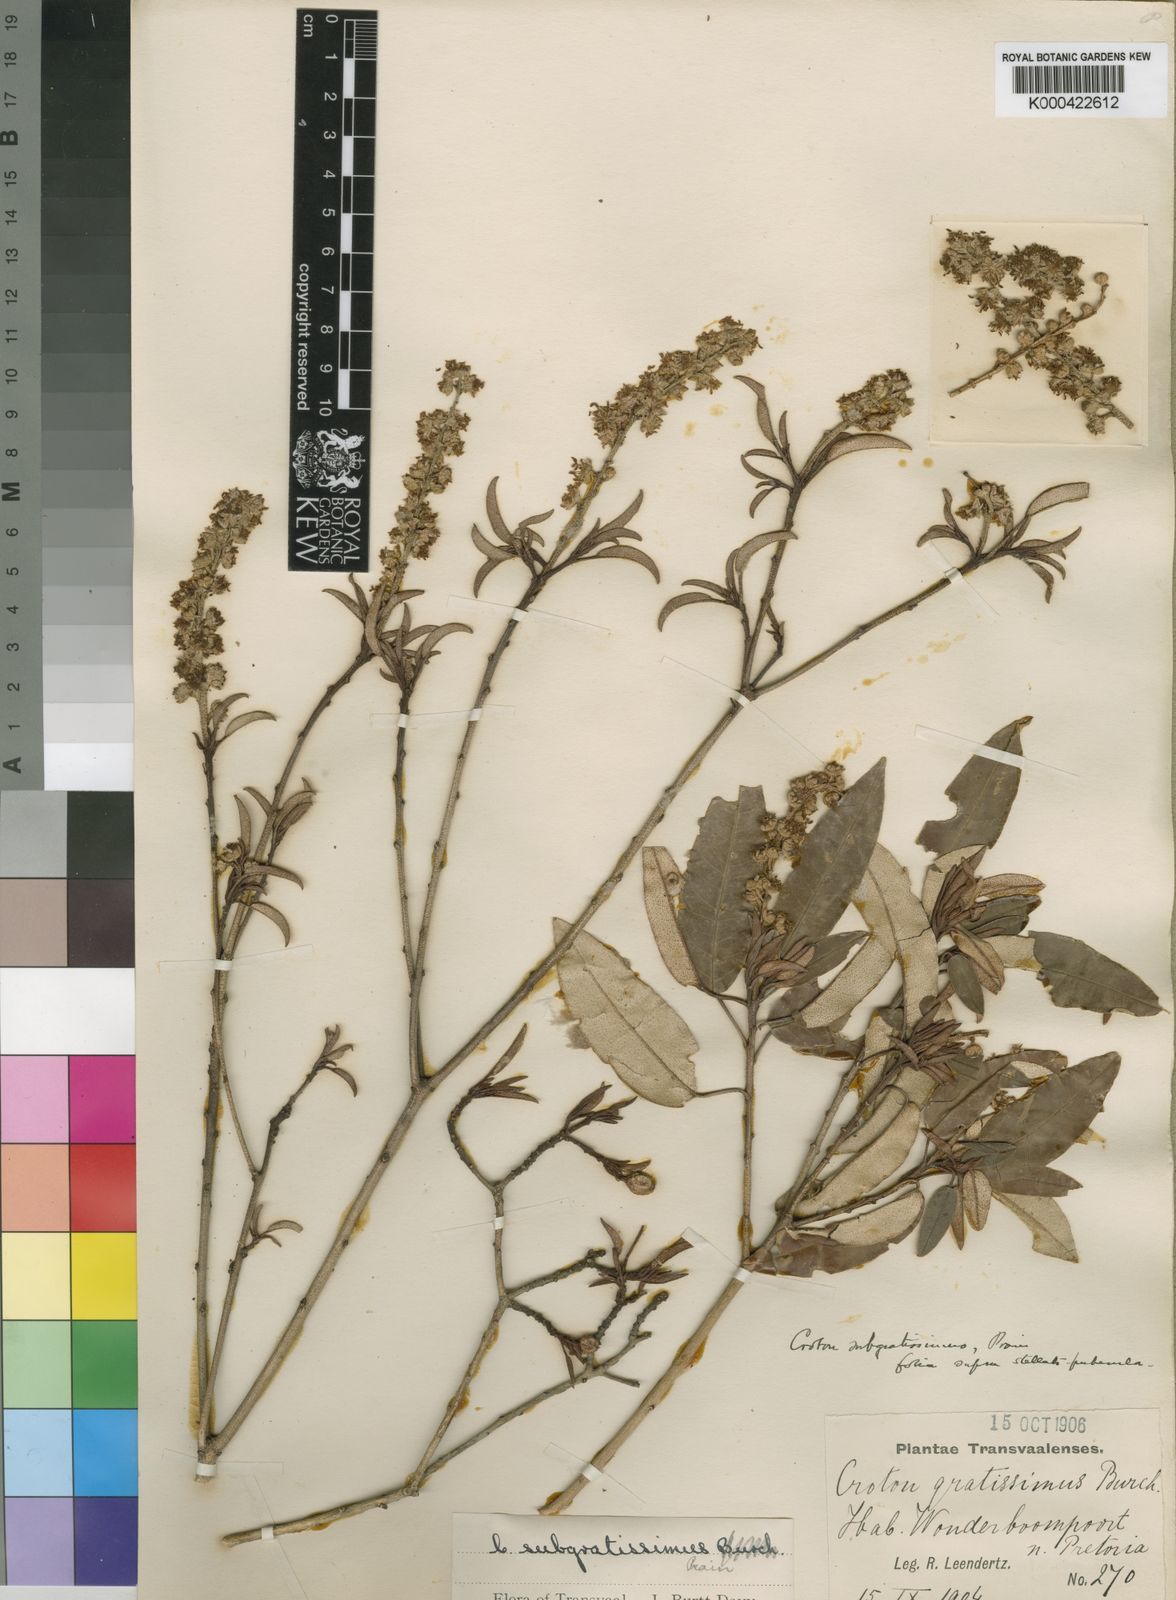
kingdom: Plantae
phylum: Tracheophyta
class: Magnoliopsida
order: Malpighiales
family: Euphorbiaceae
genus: Croton
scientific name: Croton gratissimus
